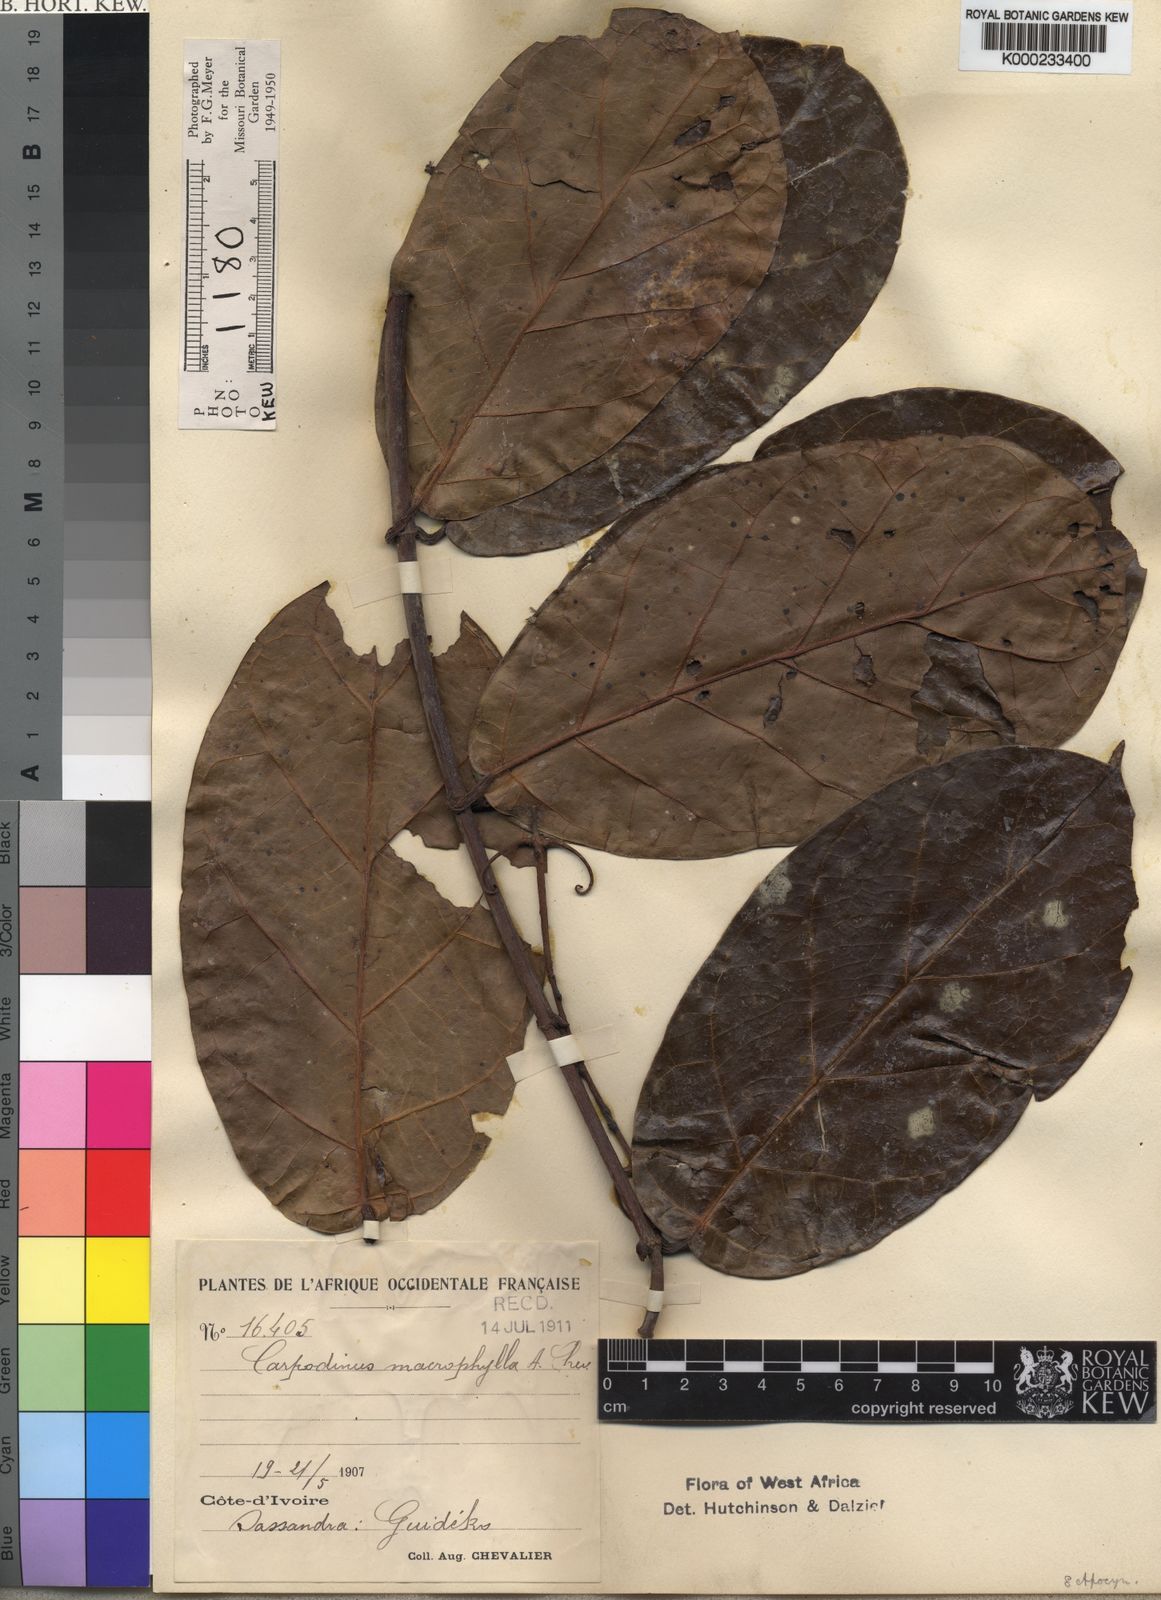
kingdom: Plantae
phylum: Tracheophyta
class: Magnoliopsida
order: Gentianales
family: Apocynaceae
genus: Dictyophleba
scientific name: Dictyophleba leonensis
